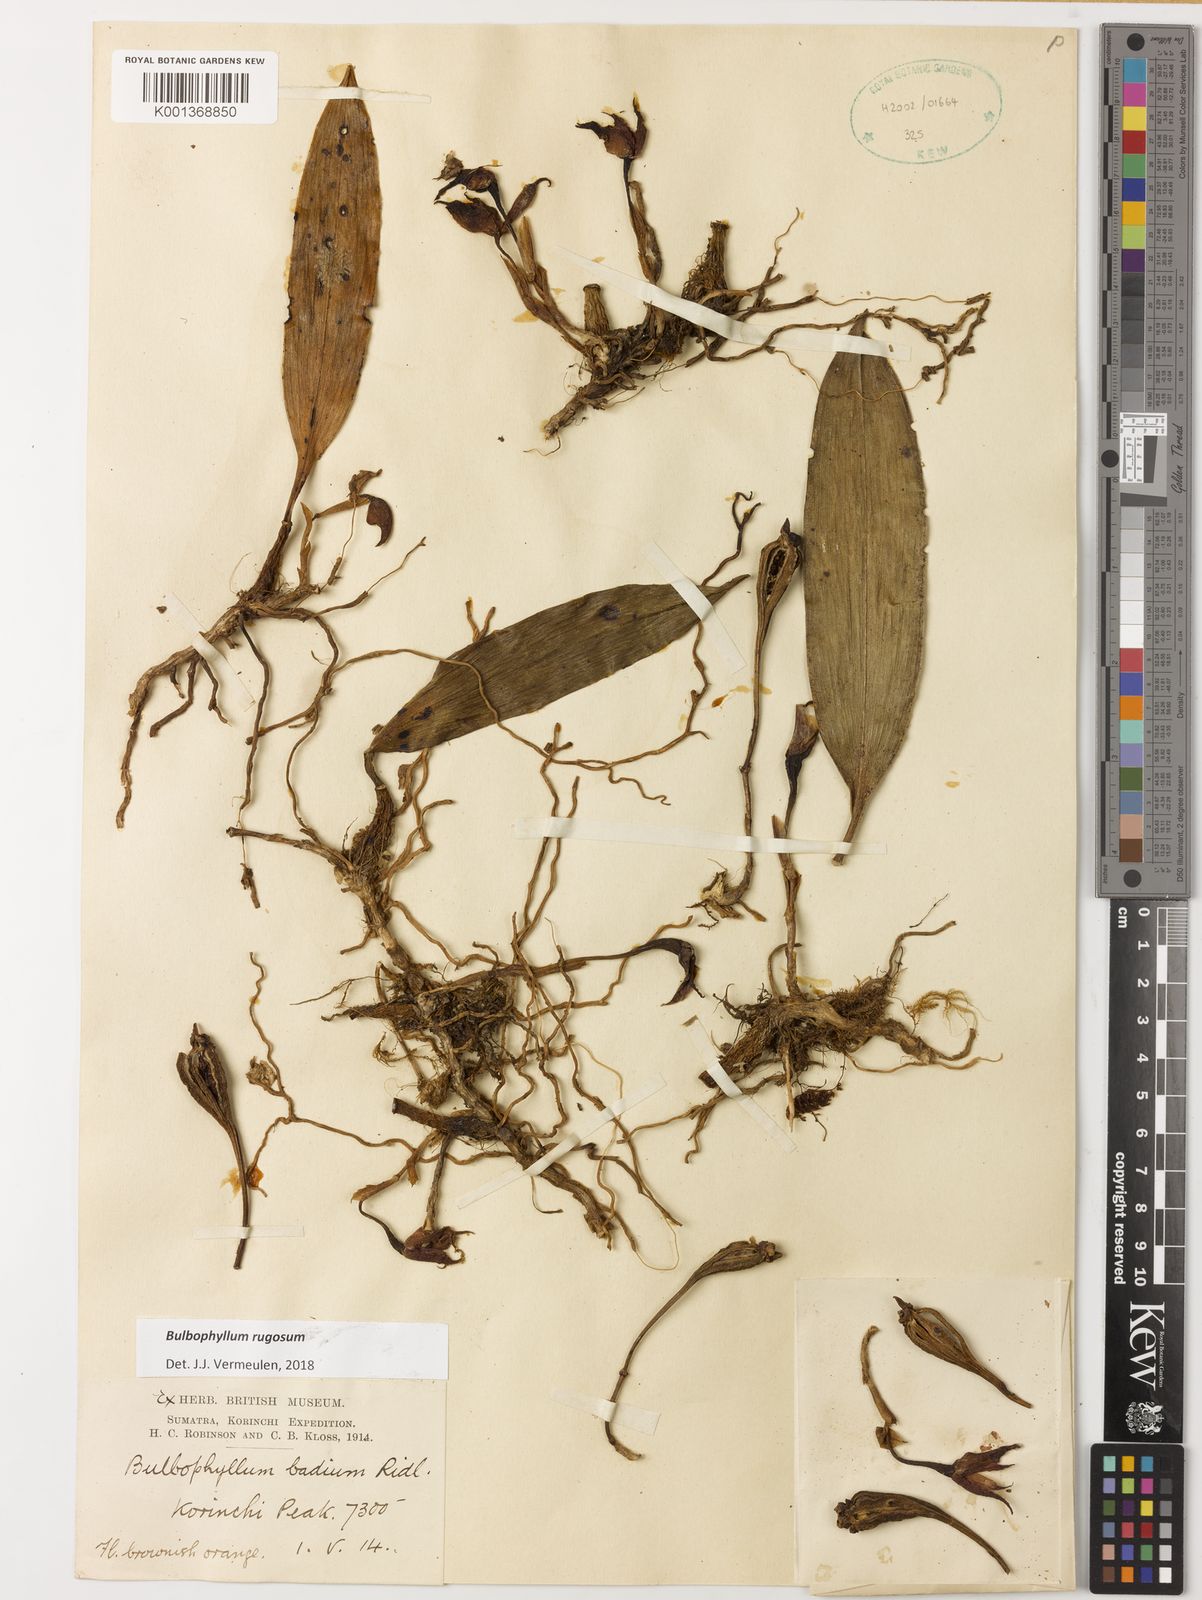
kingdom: Plantae
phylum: Tracheophyta
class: Liliopsida
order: Asparagales
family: Orchidaceae
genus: Bulbophyllum
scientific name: Bulbophyllum rugosum
